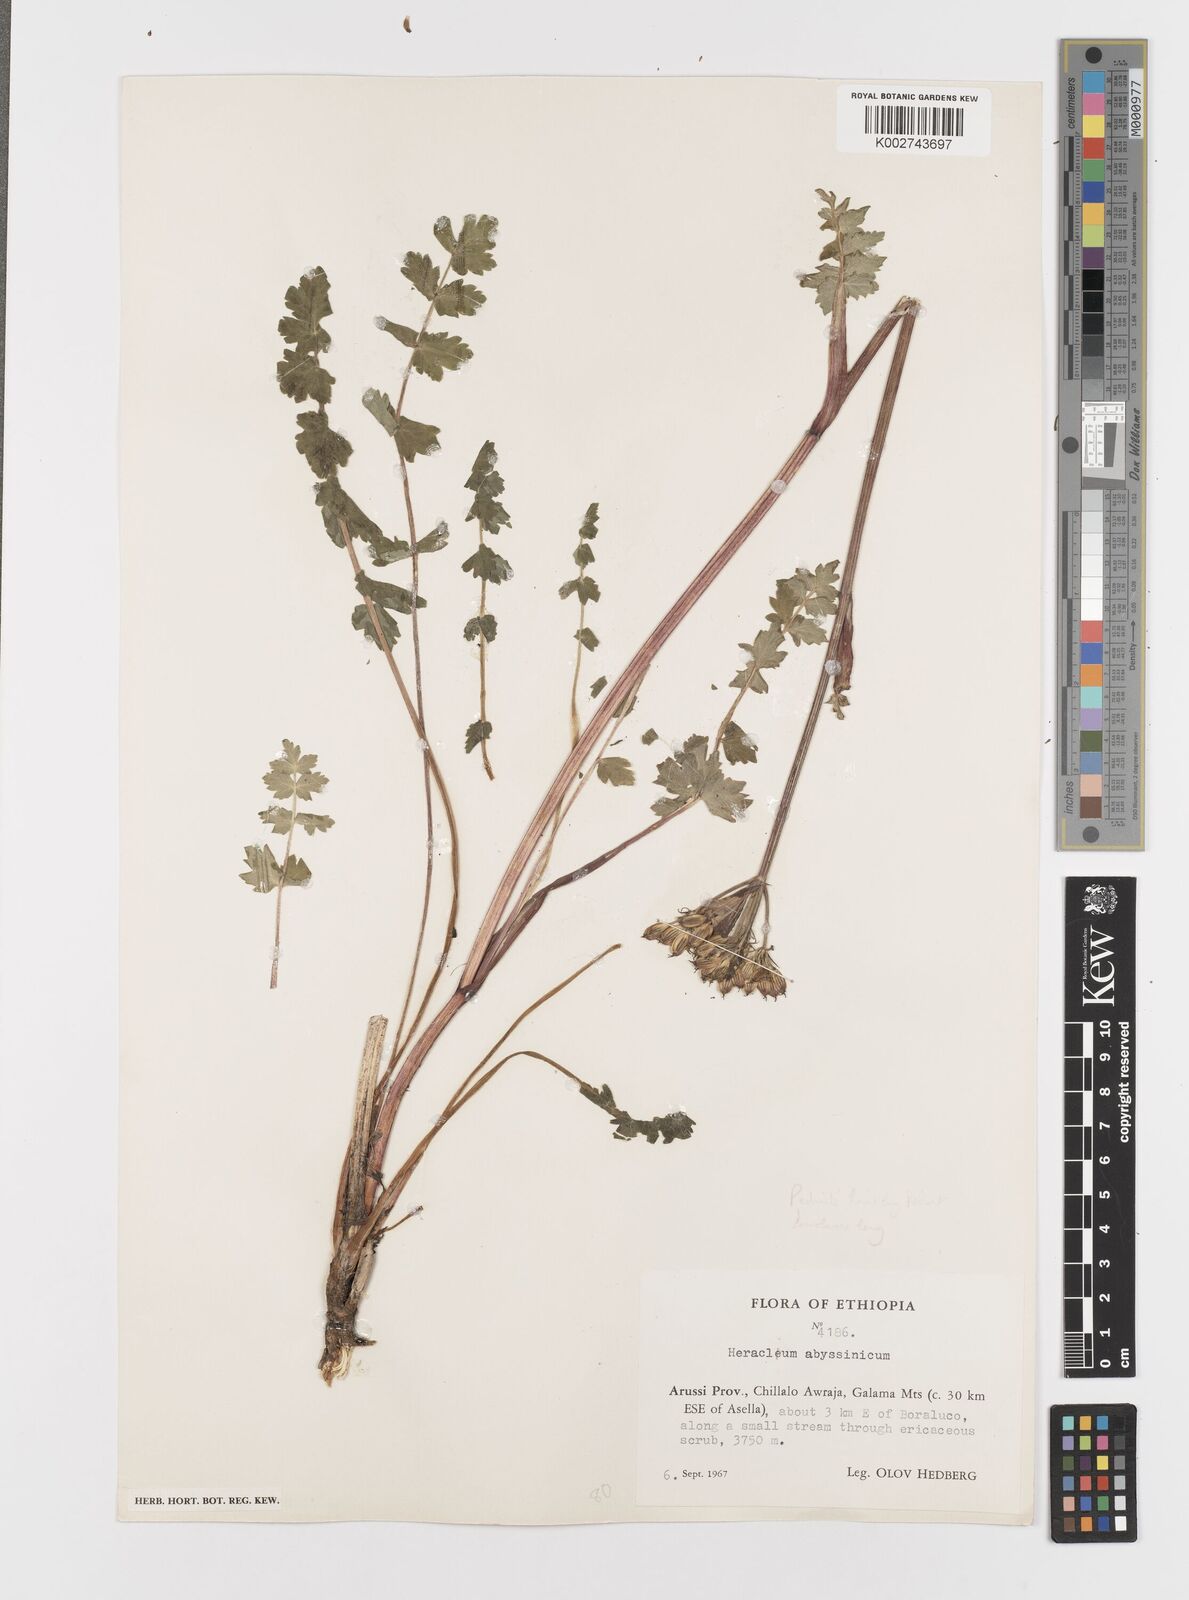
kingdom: Plantae
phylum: Tracheophyta
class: Magnoliopsida
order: Apiales
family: Apiaceae
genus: Heracleum
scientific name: Heracleum abyssinicum
